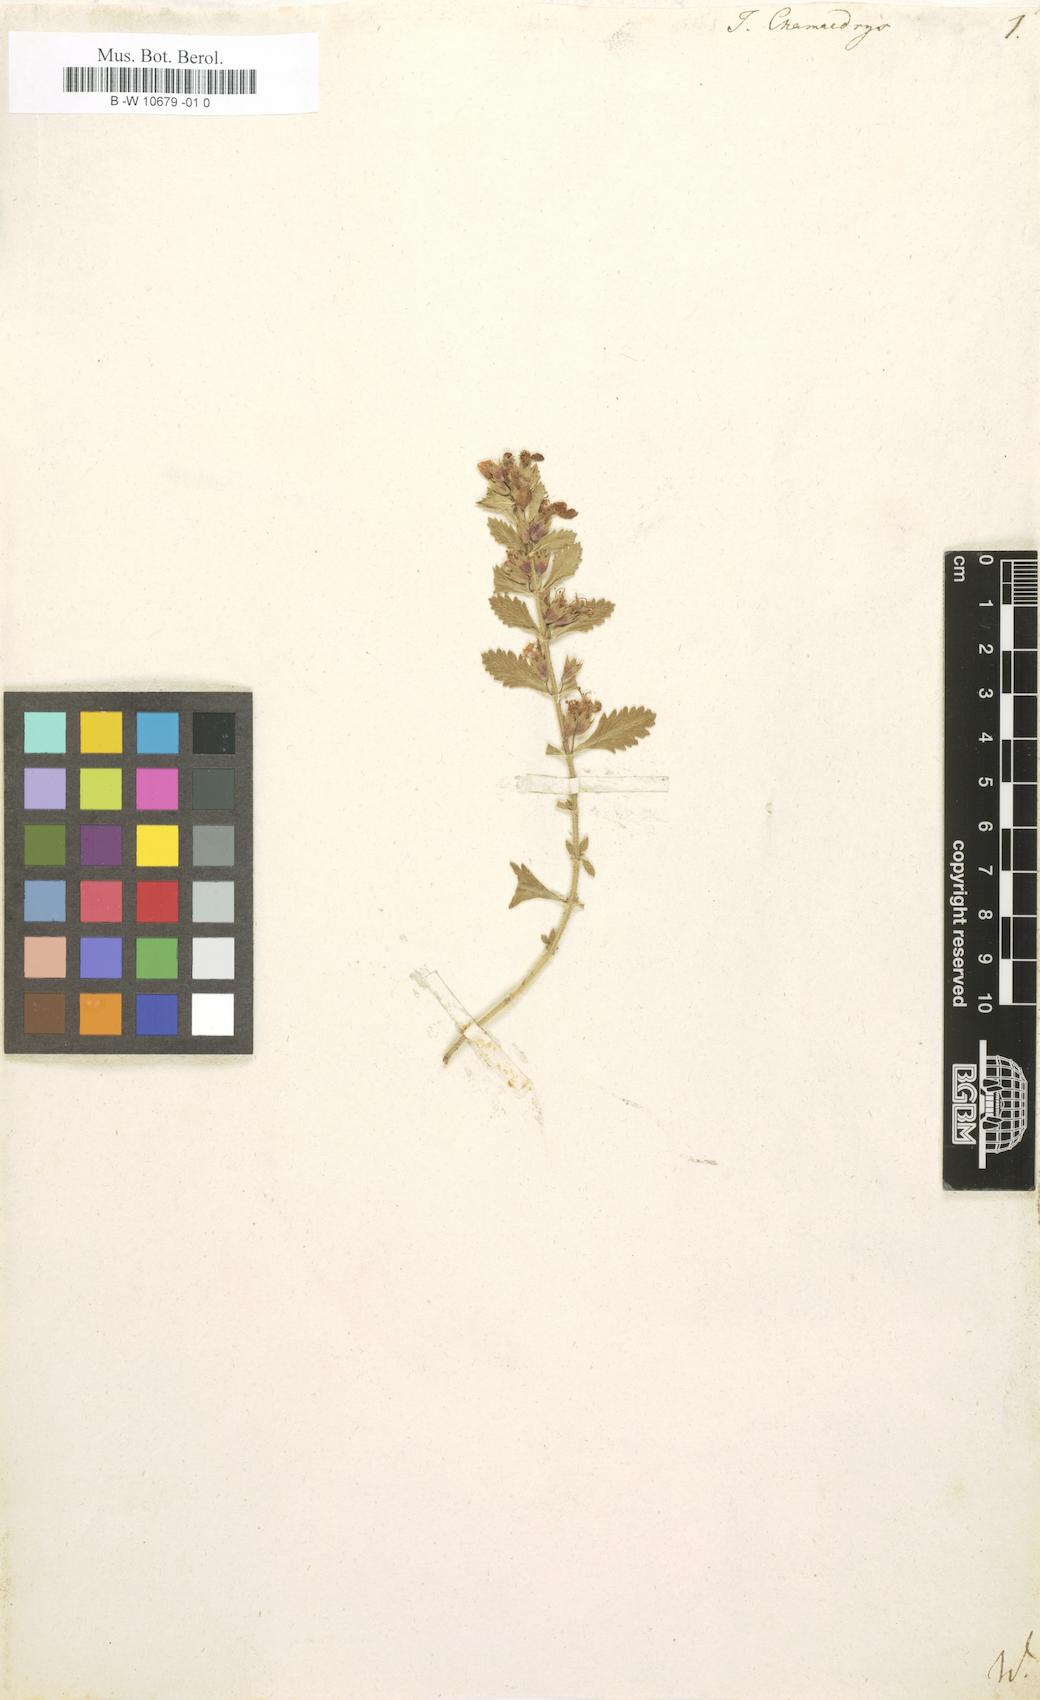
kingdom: Plantae
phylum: Tracheophyta
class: Magnoliopsida
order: Lamiales
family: Lamiaceae
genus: Teucrium
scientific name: Teucrium chamaedrys
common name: Wall germander
